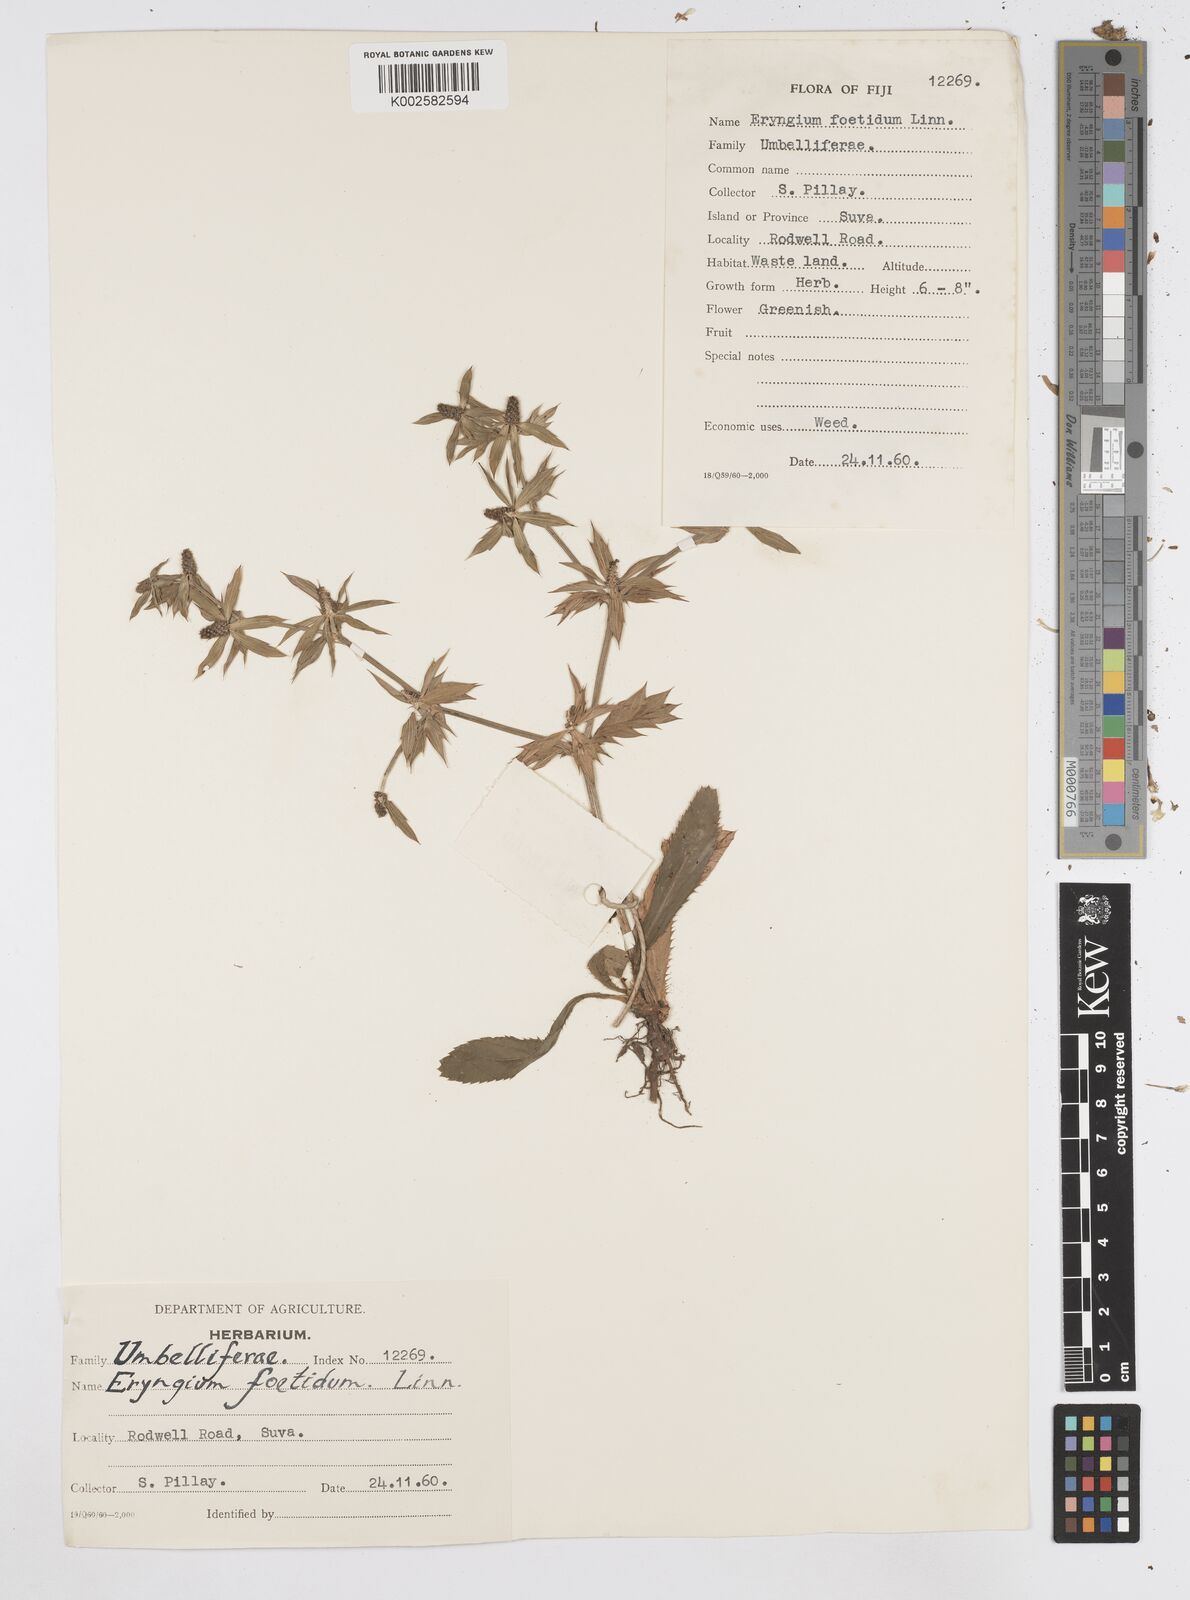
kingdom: Plantae
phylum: Tracheophyta
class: Magnoliopsida
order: Apiales
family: Apiaceae
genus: Eryngium
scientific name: Eryngium foetidum
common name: Fitweed
